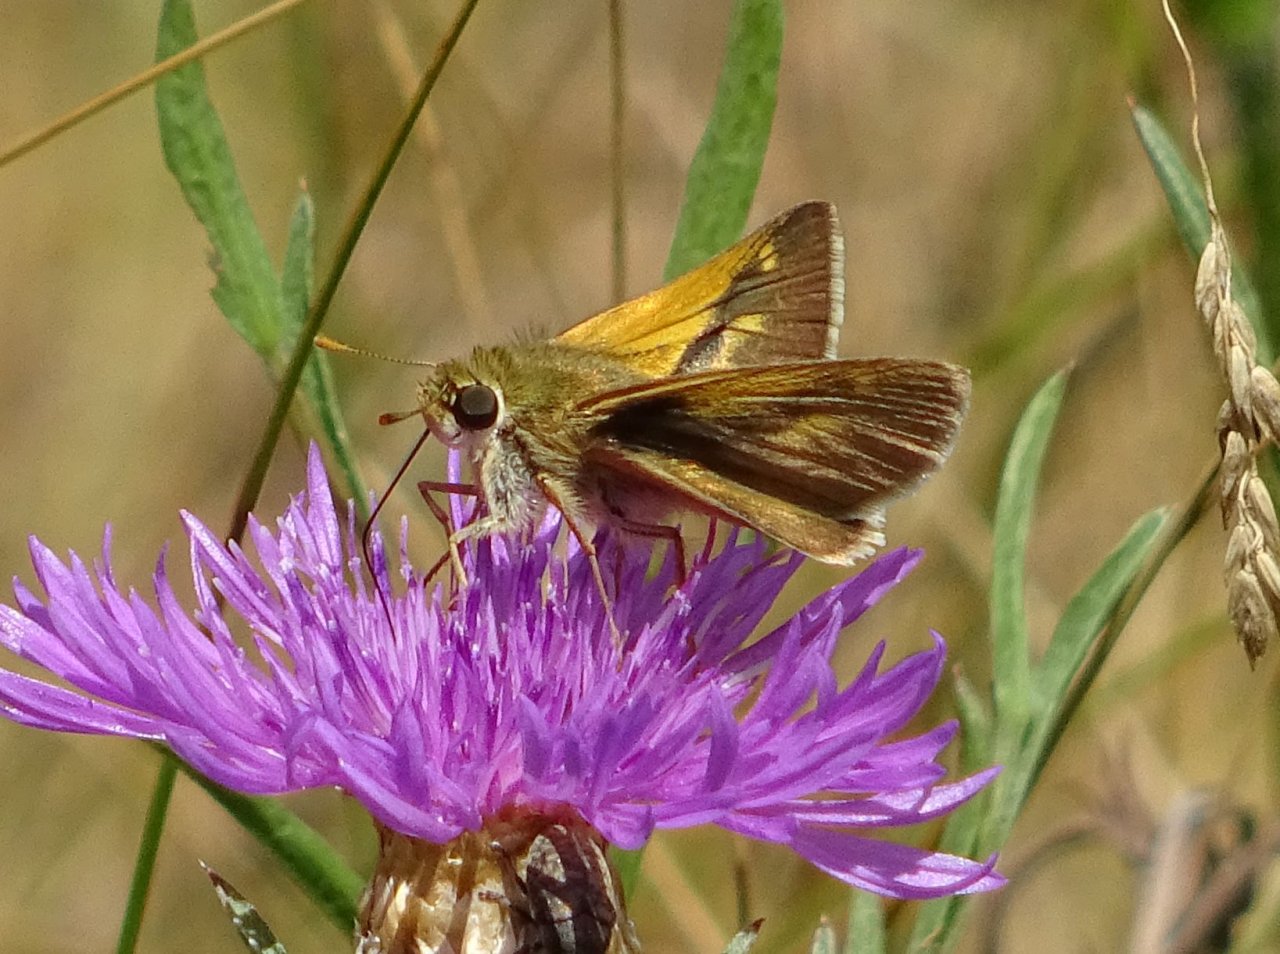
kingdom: Animalia
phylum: Arthropoda
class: Insecta
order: Lepidoptera
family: Hesperiidae
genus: Polites
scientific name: Polites
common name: Crossline Skipper
